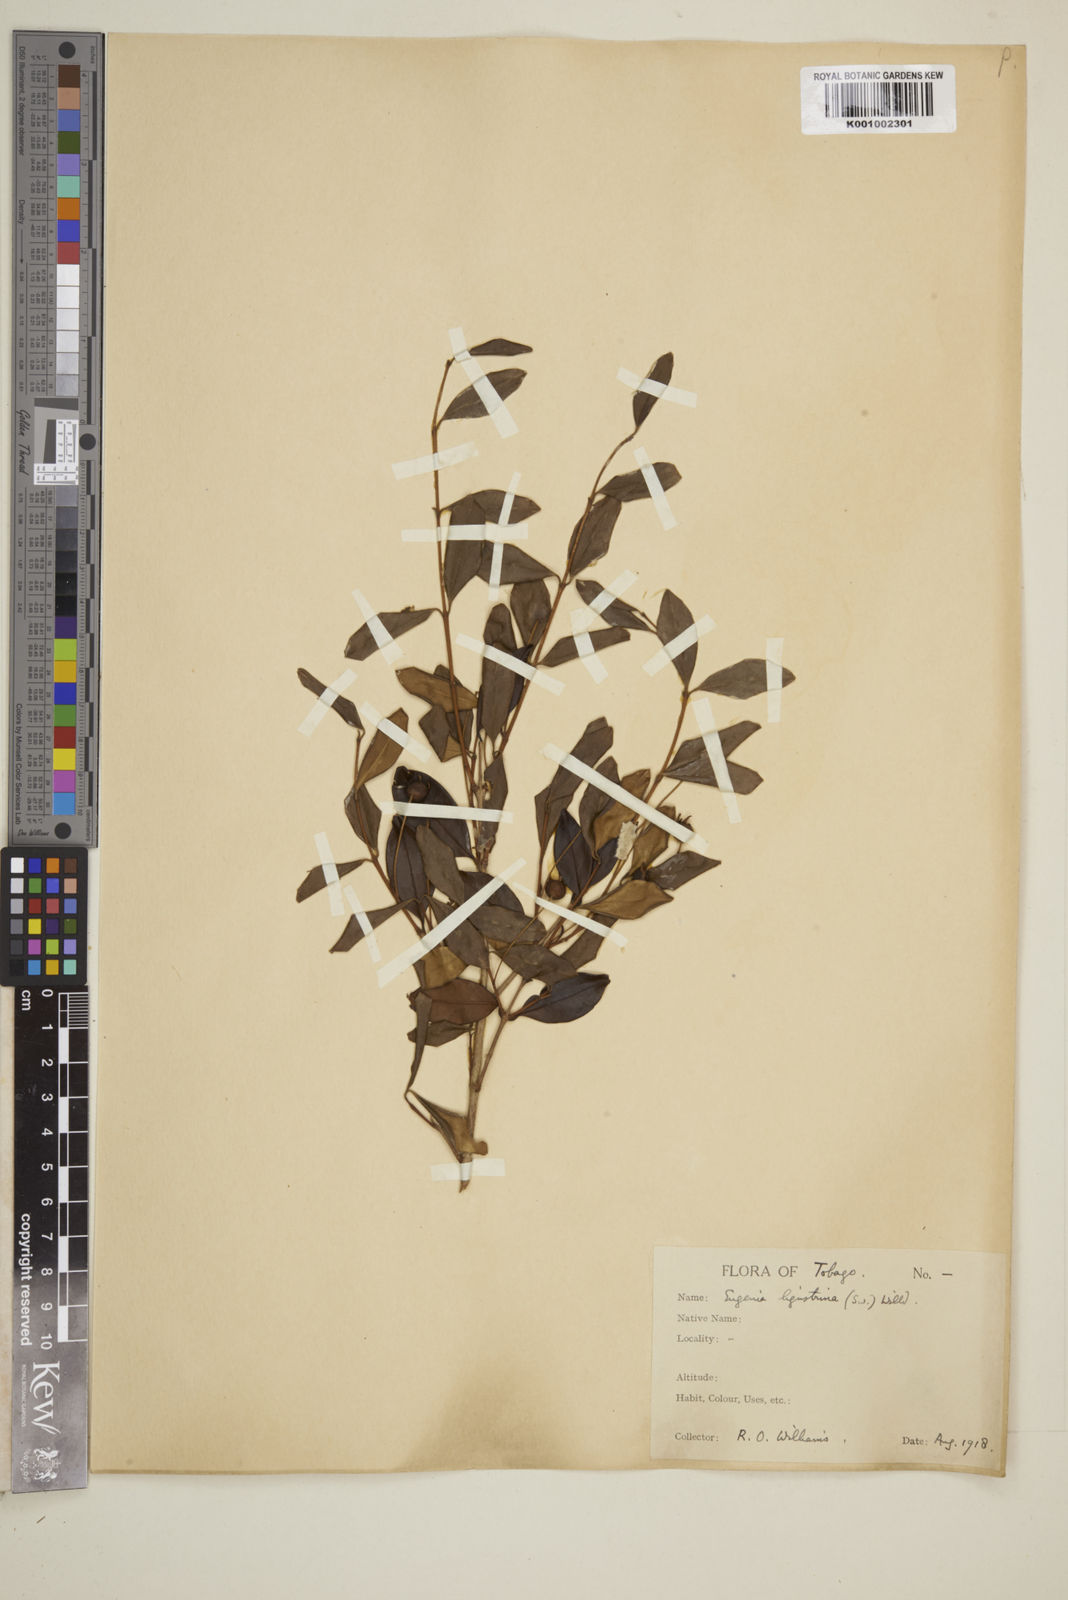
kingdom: Plantae
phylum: Tracheophyta
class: Magnoliopsida
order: Myrtales
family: Myrtaceae
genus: Eugenia
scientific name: Eugenia ligustrina
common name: Privet stopper
